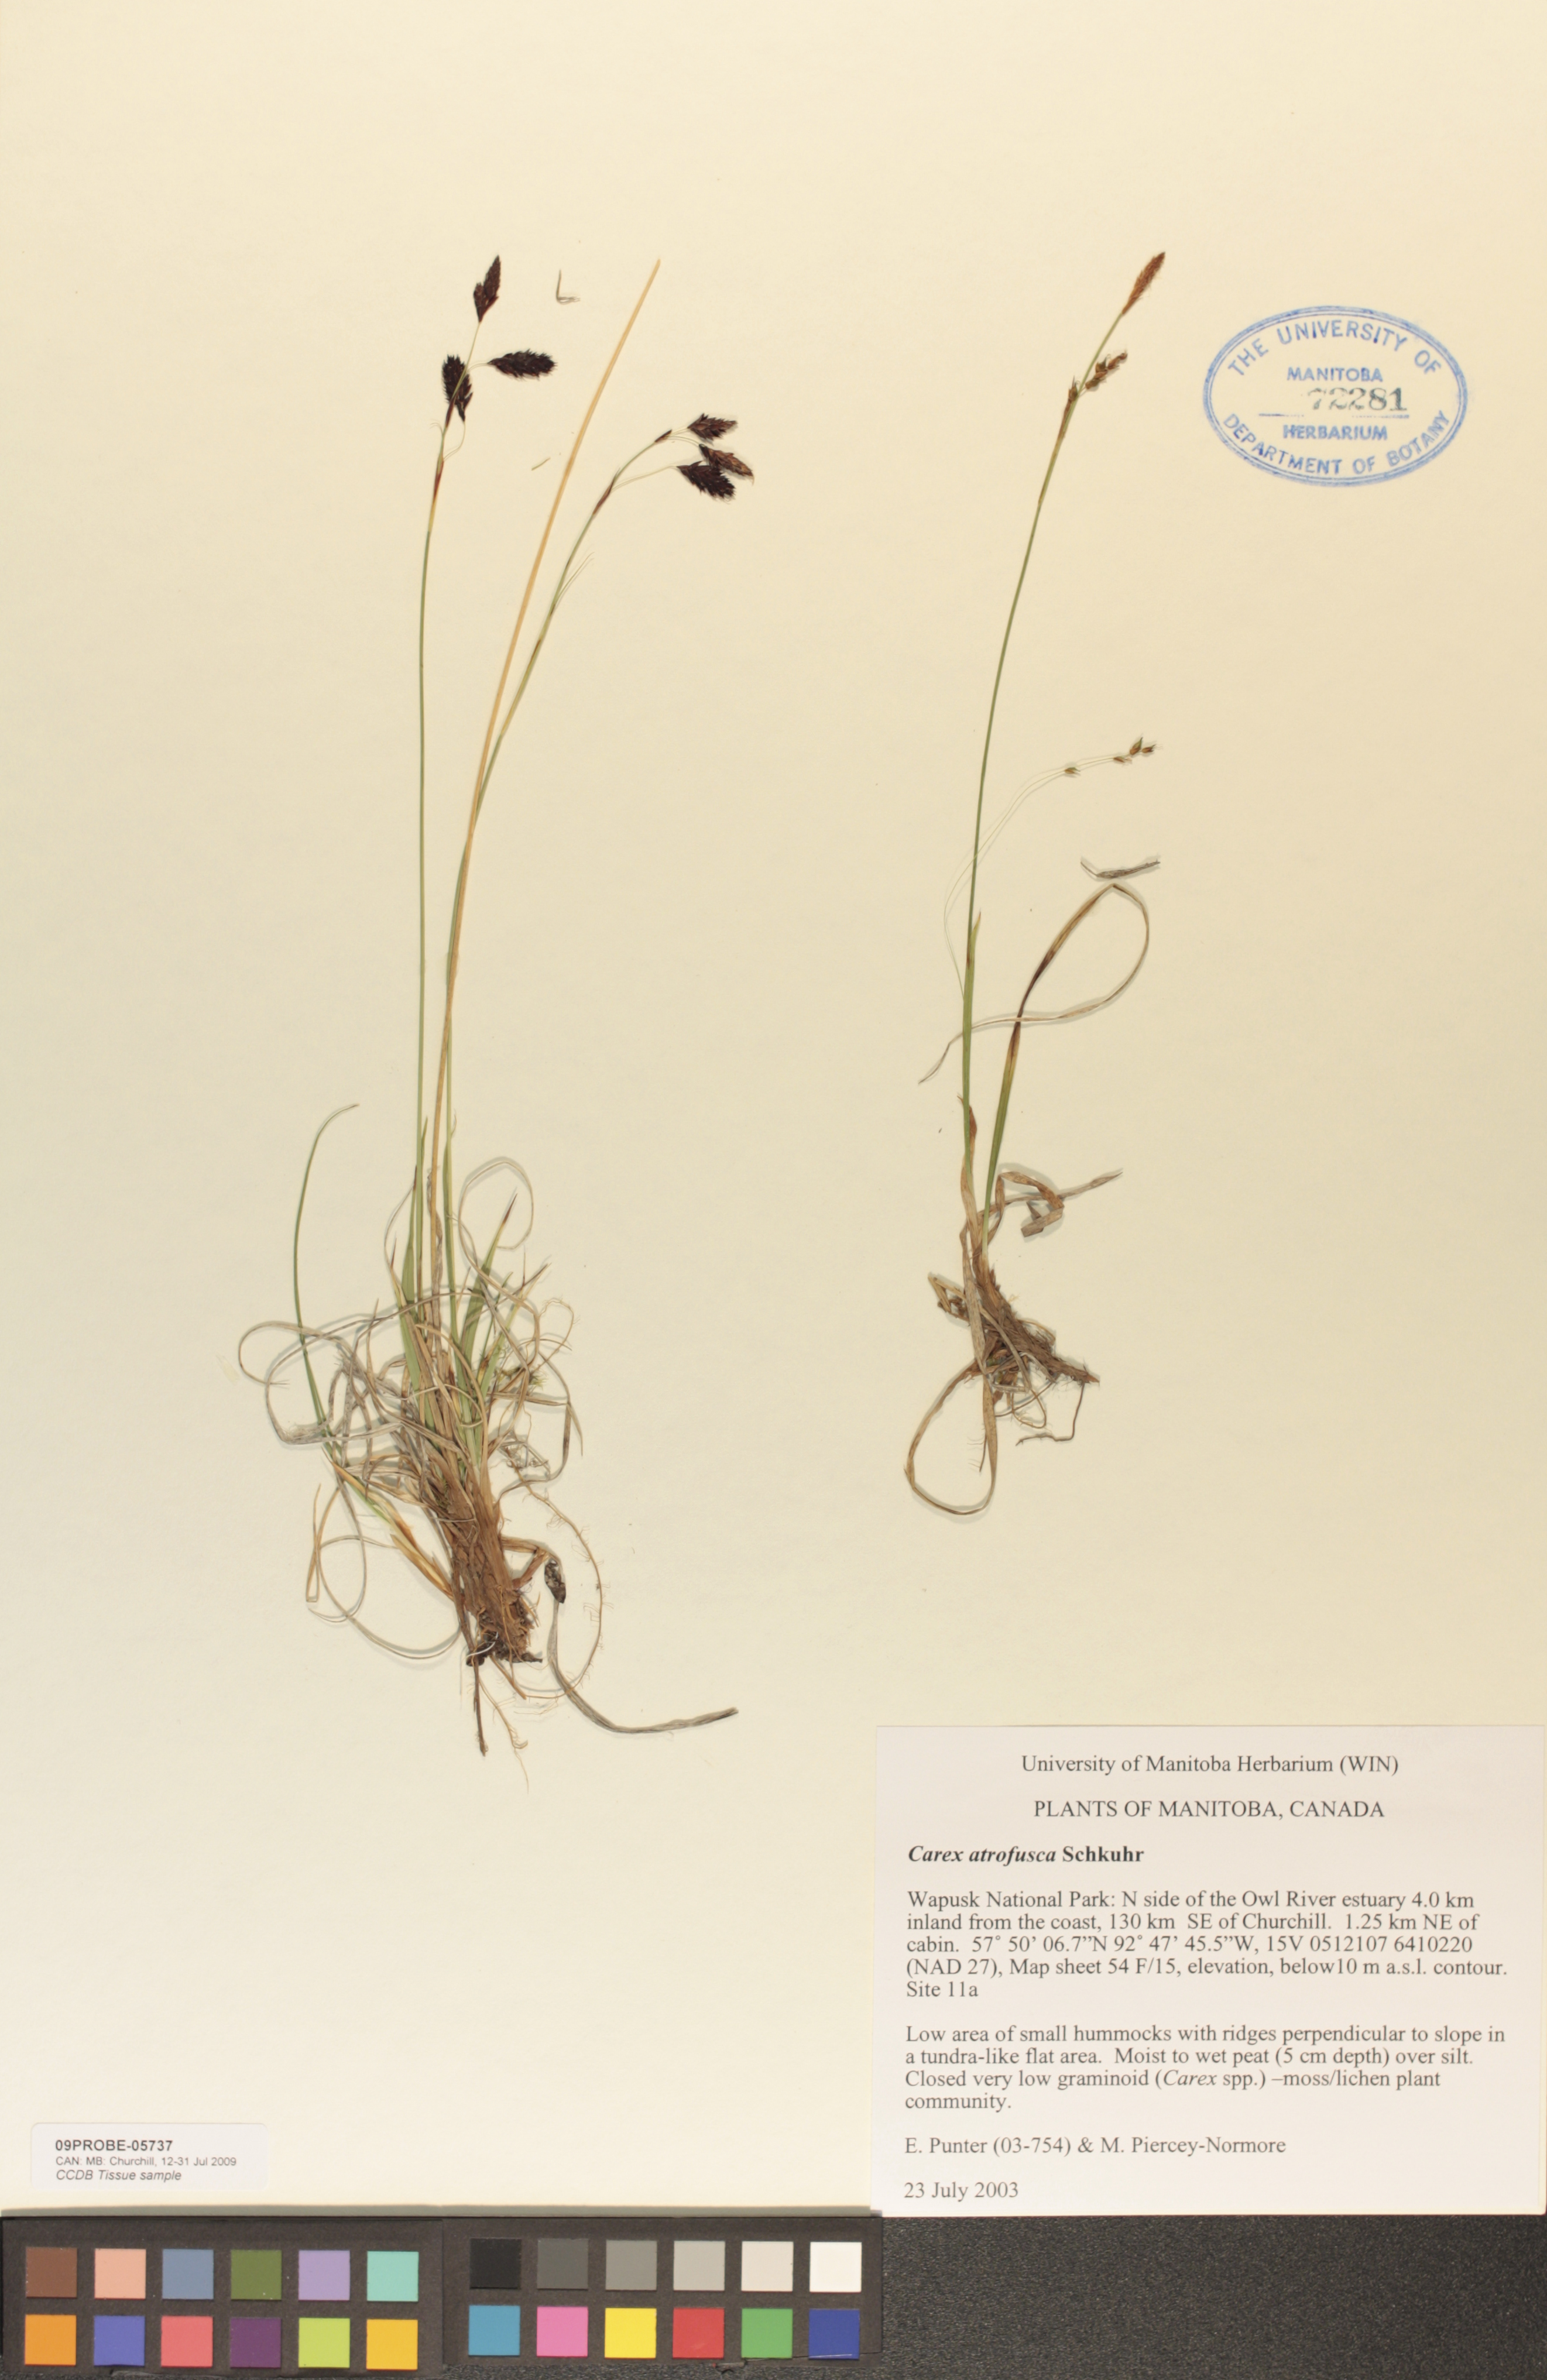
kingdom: Plantae
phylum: Tracheophyta
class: Liliopsida
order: Poales
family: Cyperaceae
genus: Carex
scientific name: Carex pichinchensis
